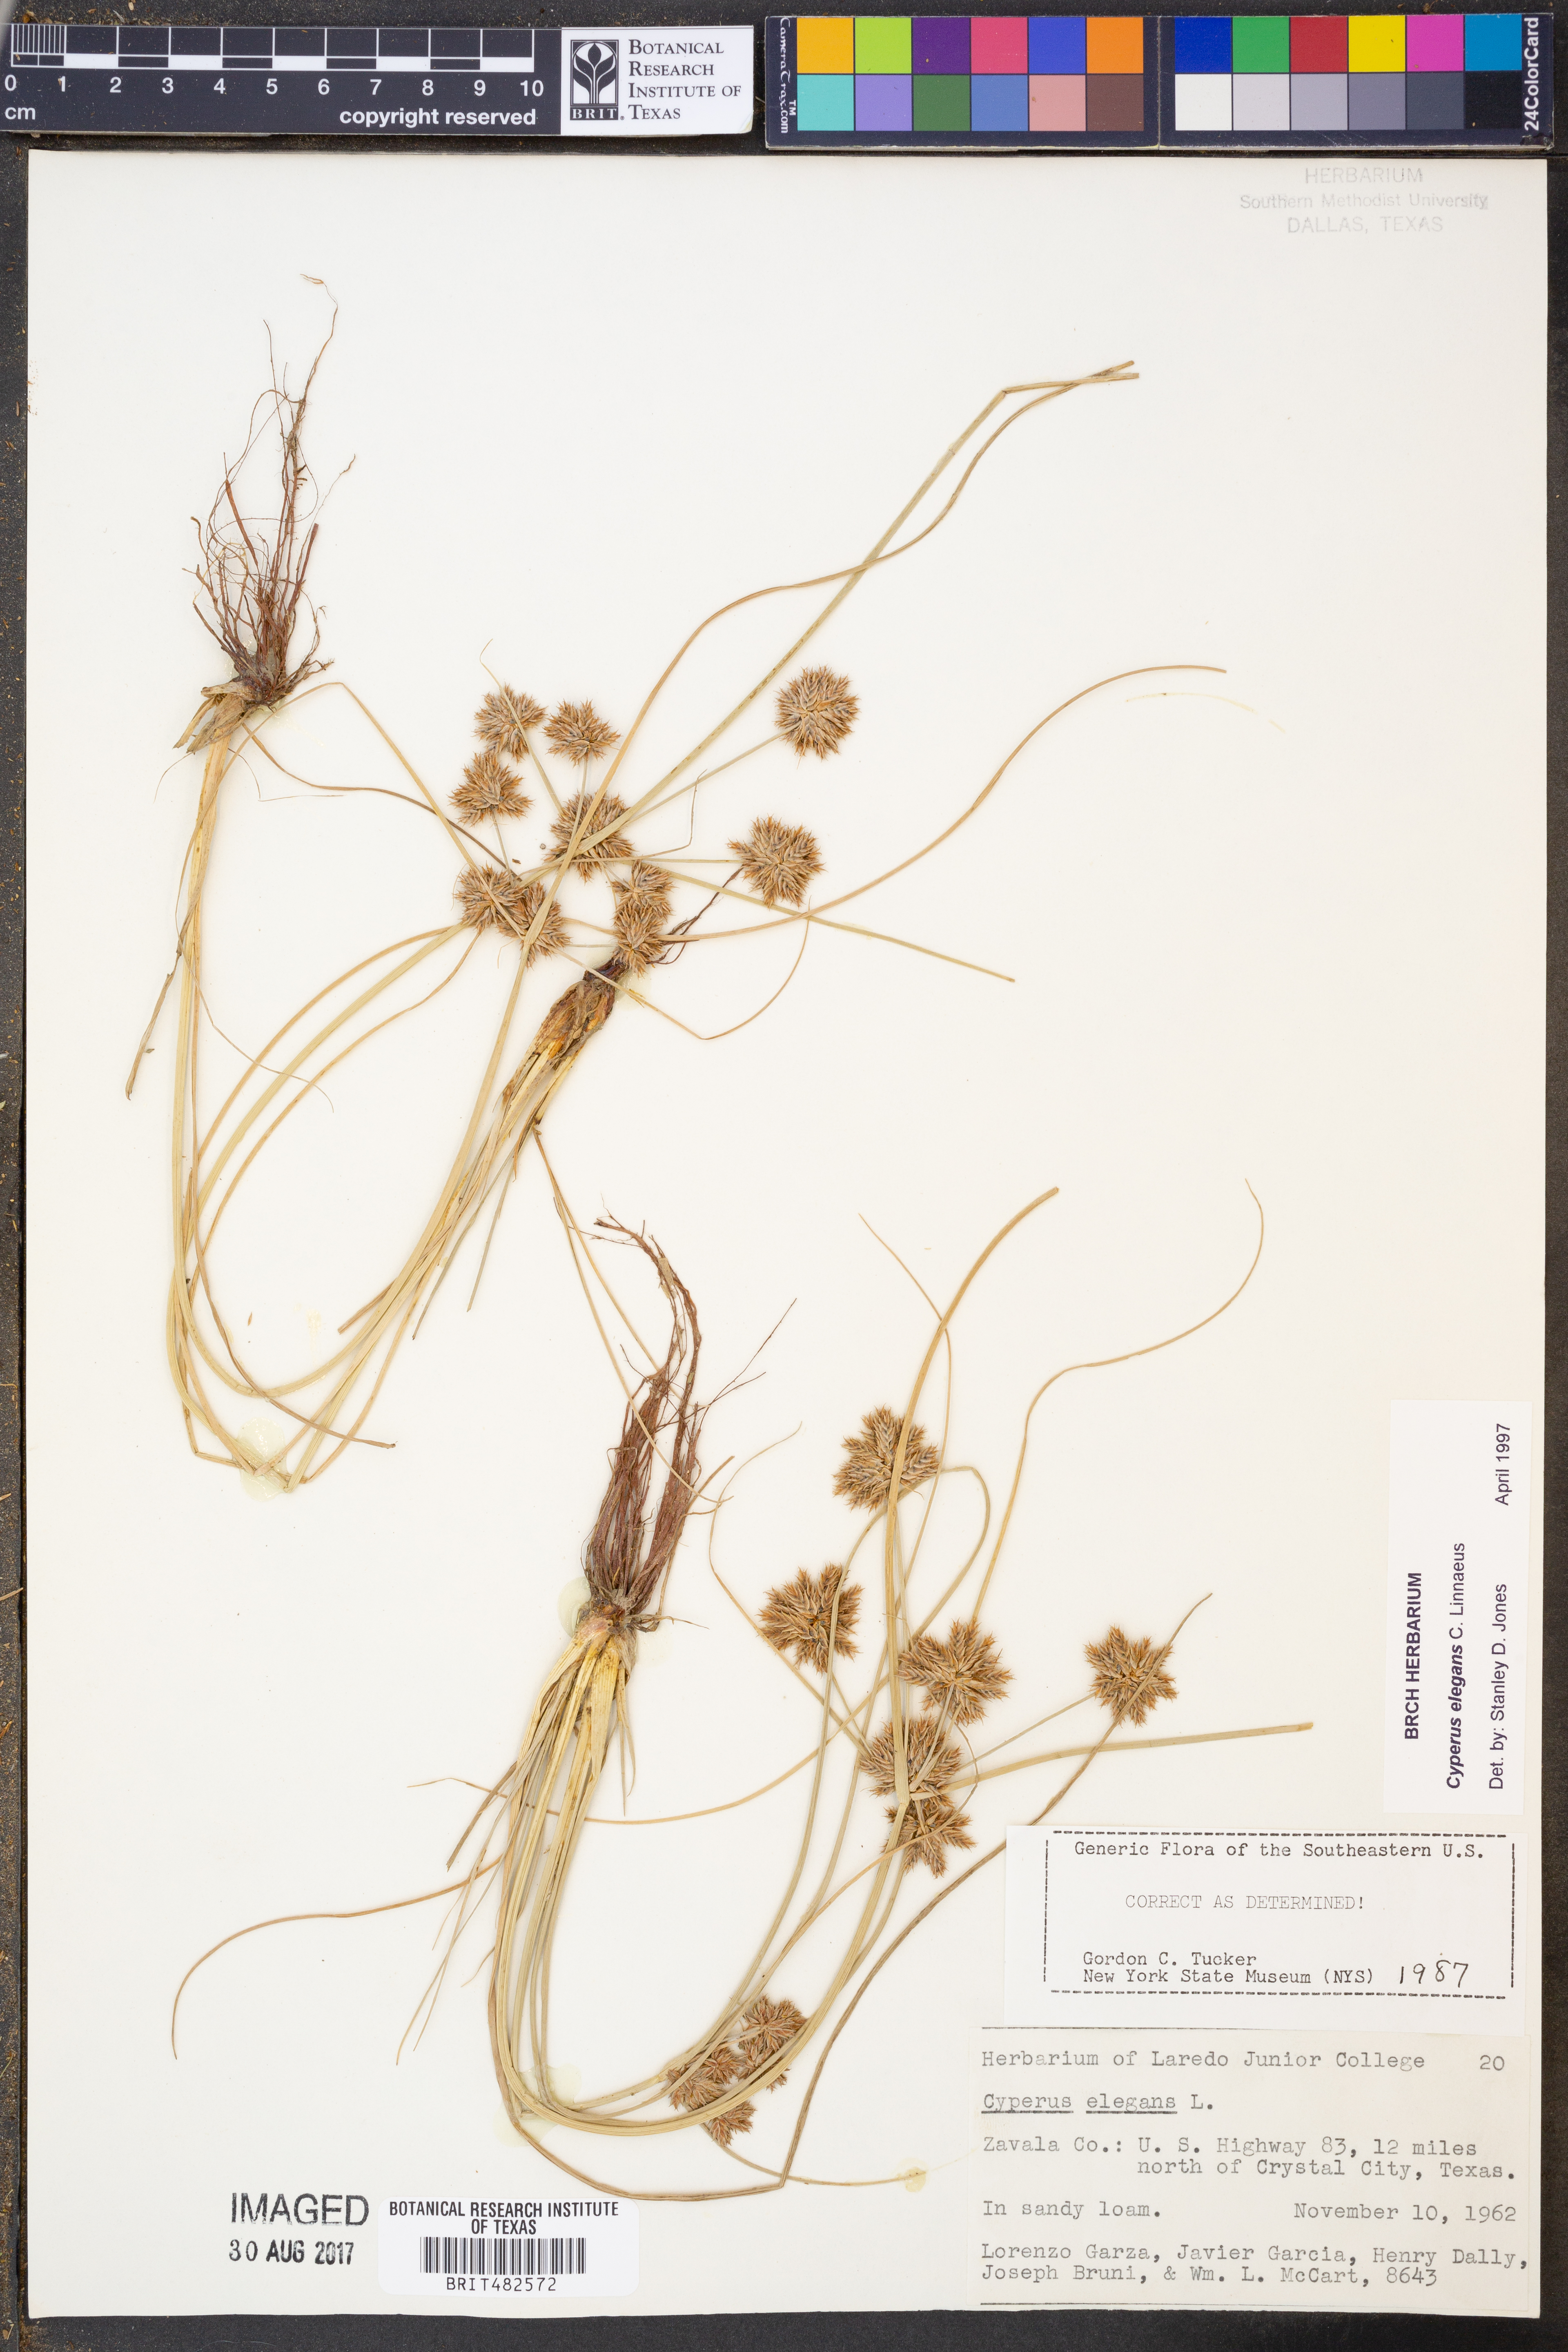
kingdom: Plantae
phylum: Tracheophyta
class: Liliopsida
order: Poales
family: Cyperaceae
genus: Cyperus
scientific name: Cyperus elegans
